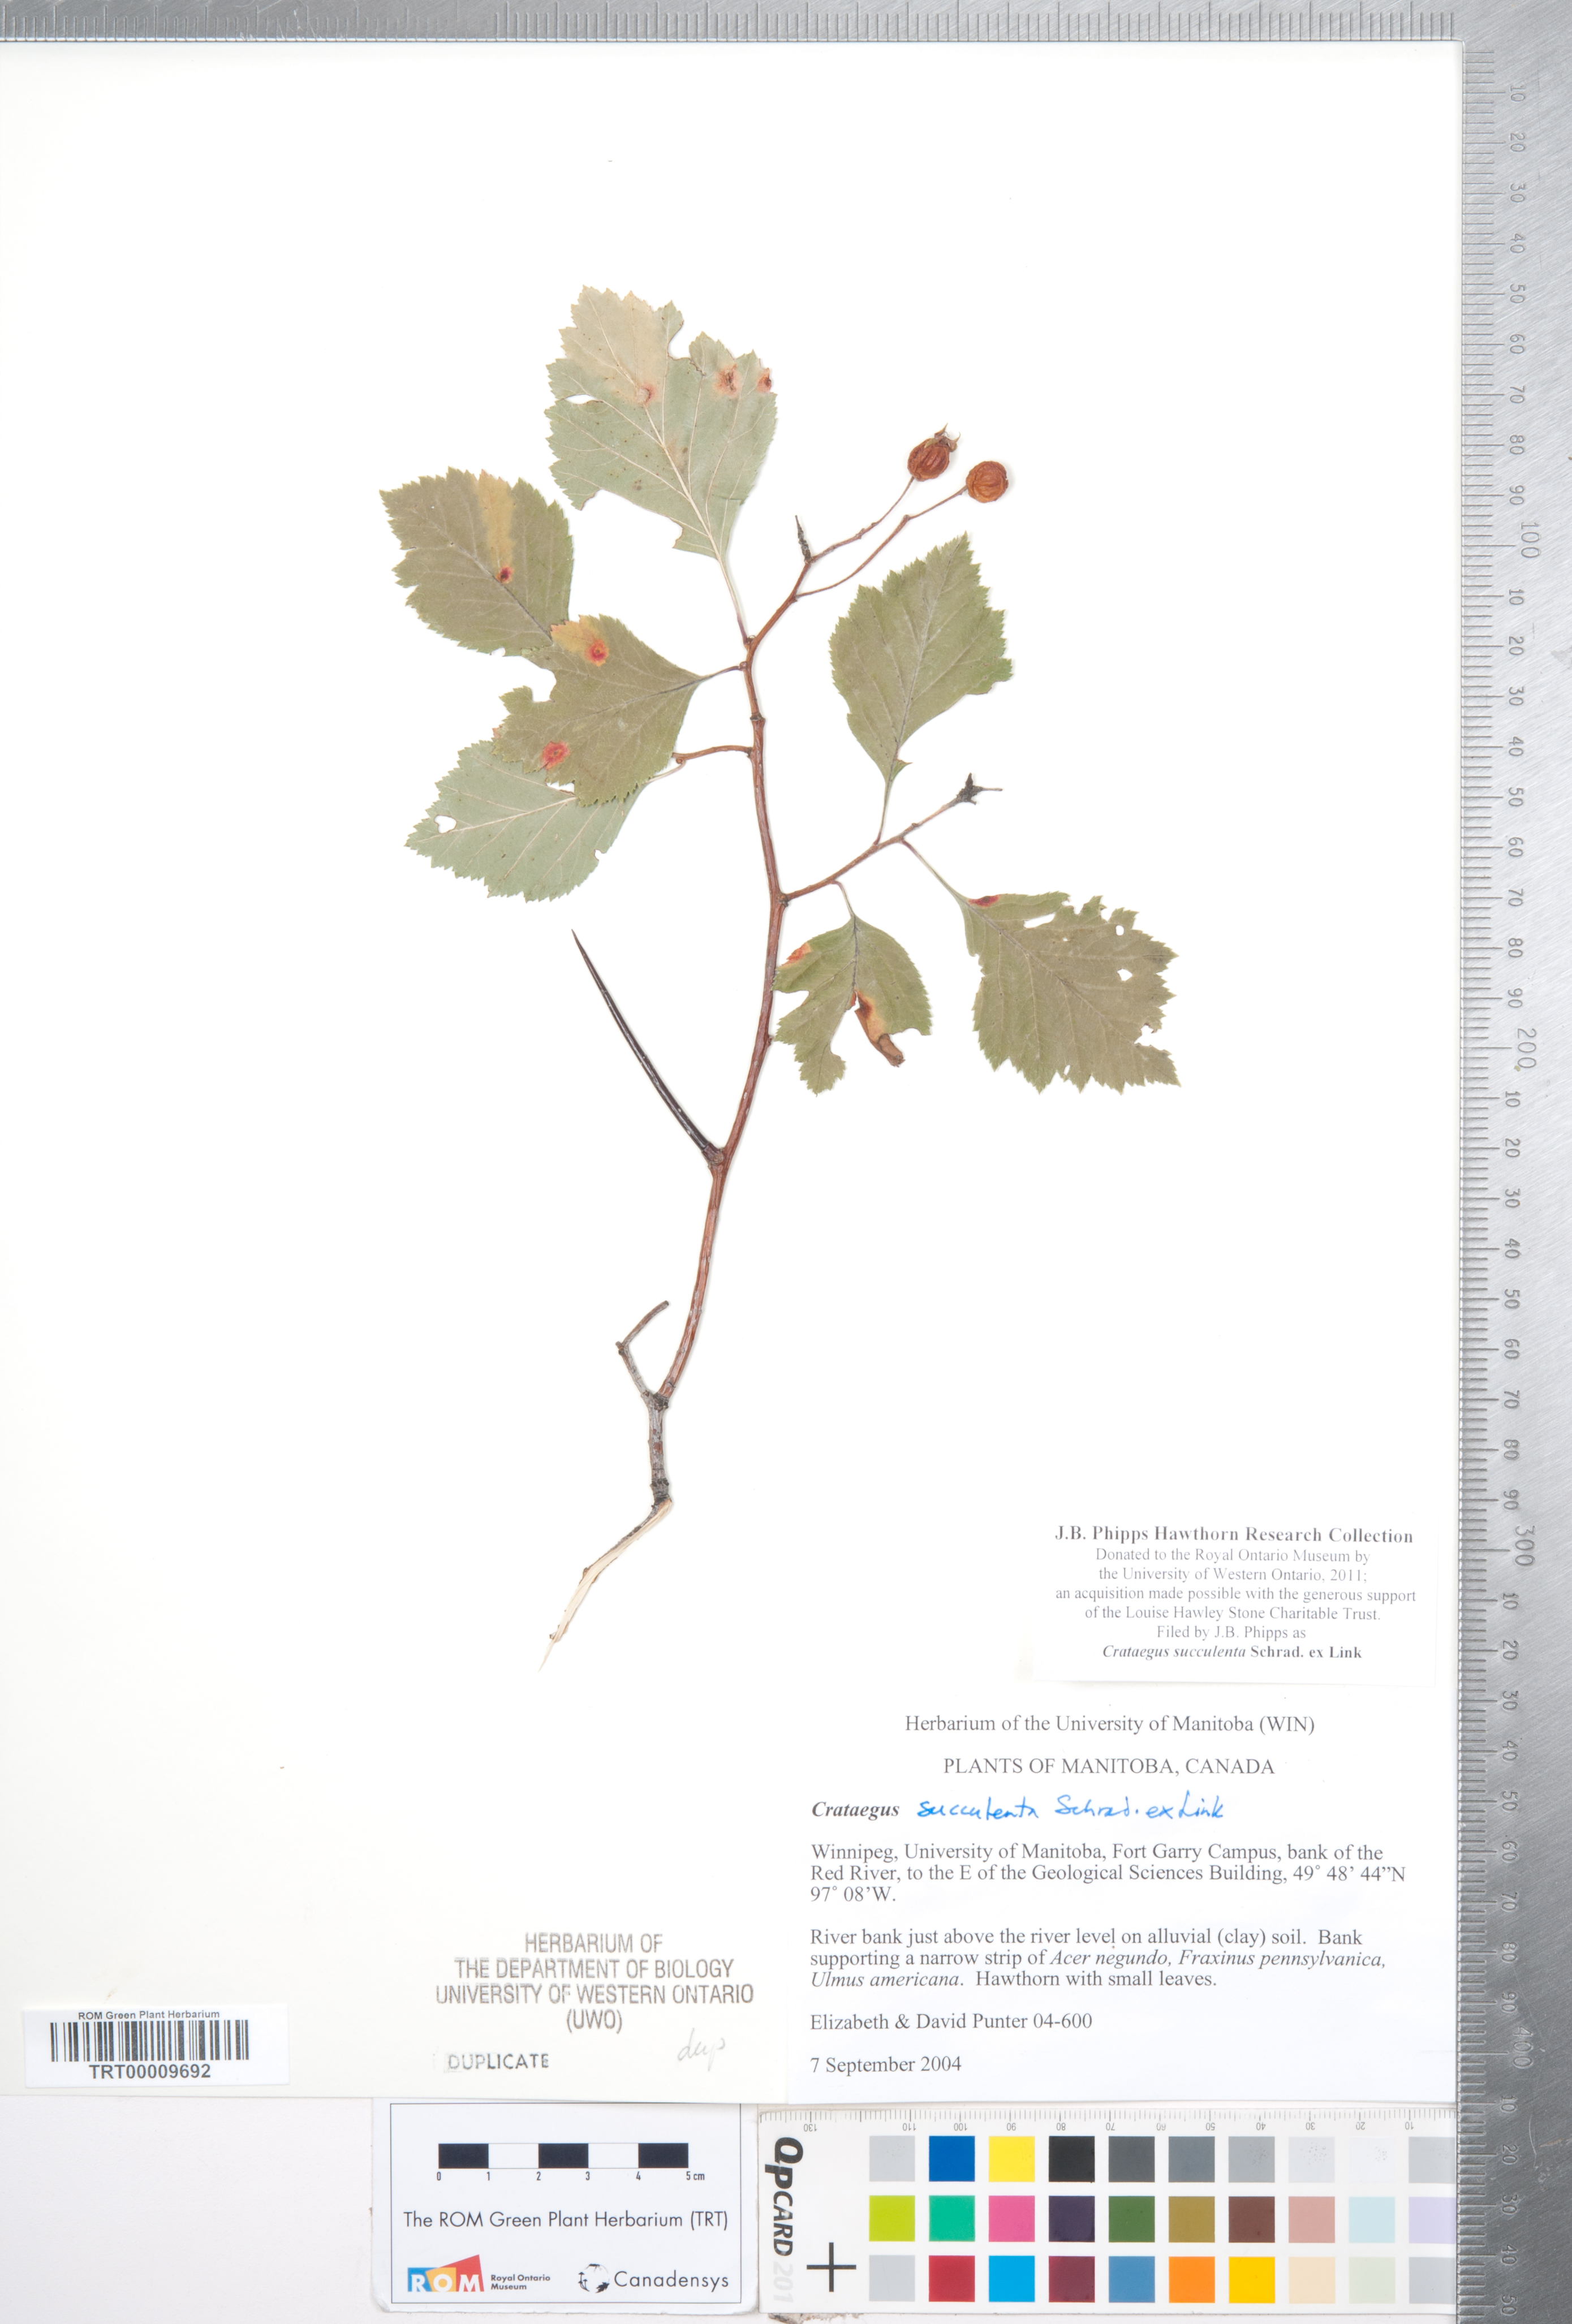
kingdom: Plantae
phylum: Tracheophyta
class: Magnoliopsida
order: Rosales
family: Rosaceae
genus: Crataegus
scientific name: Crataegus succulenta
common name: Fleshy hawthorn
